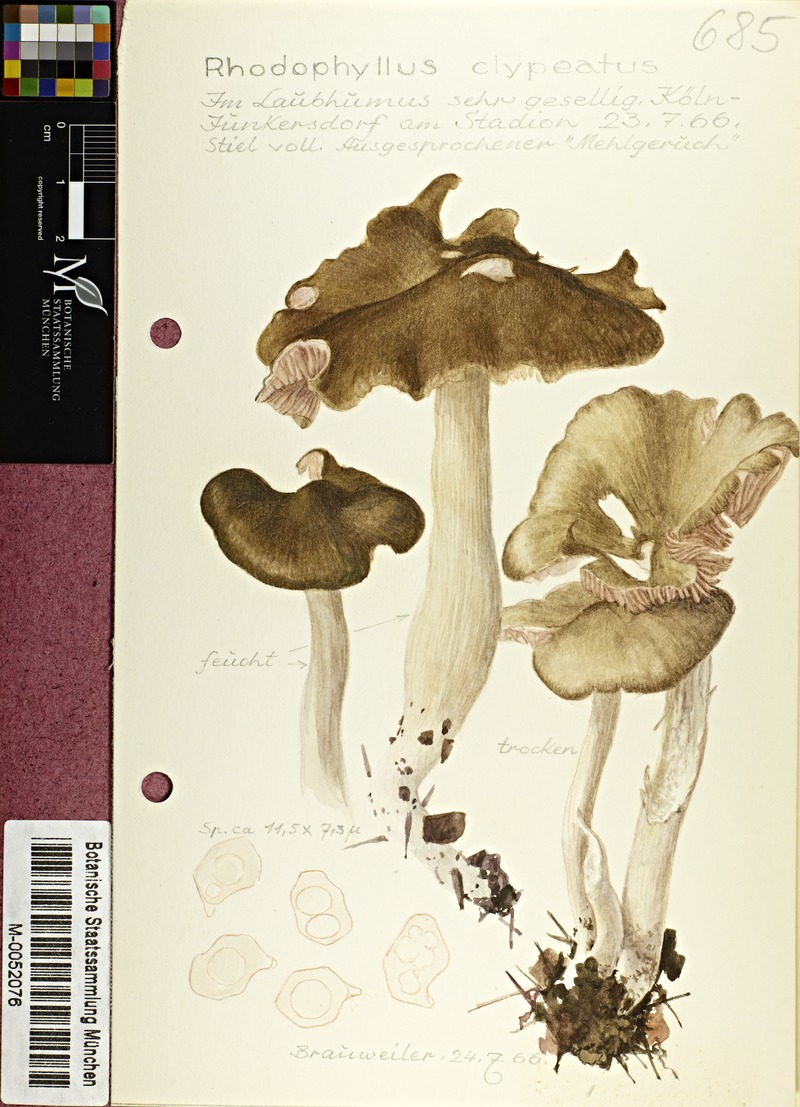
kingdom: Fungi
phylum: Basidiomycota
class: Agaricomycetes
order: Agaricales
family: Entolomataceae
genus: Entoloma
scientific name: Entoloma clypeatum
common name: Shield pinkgill
